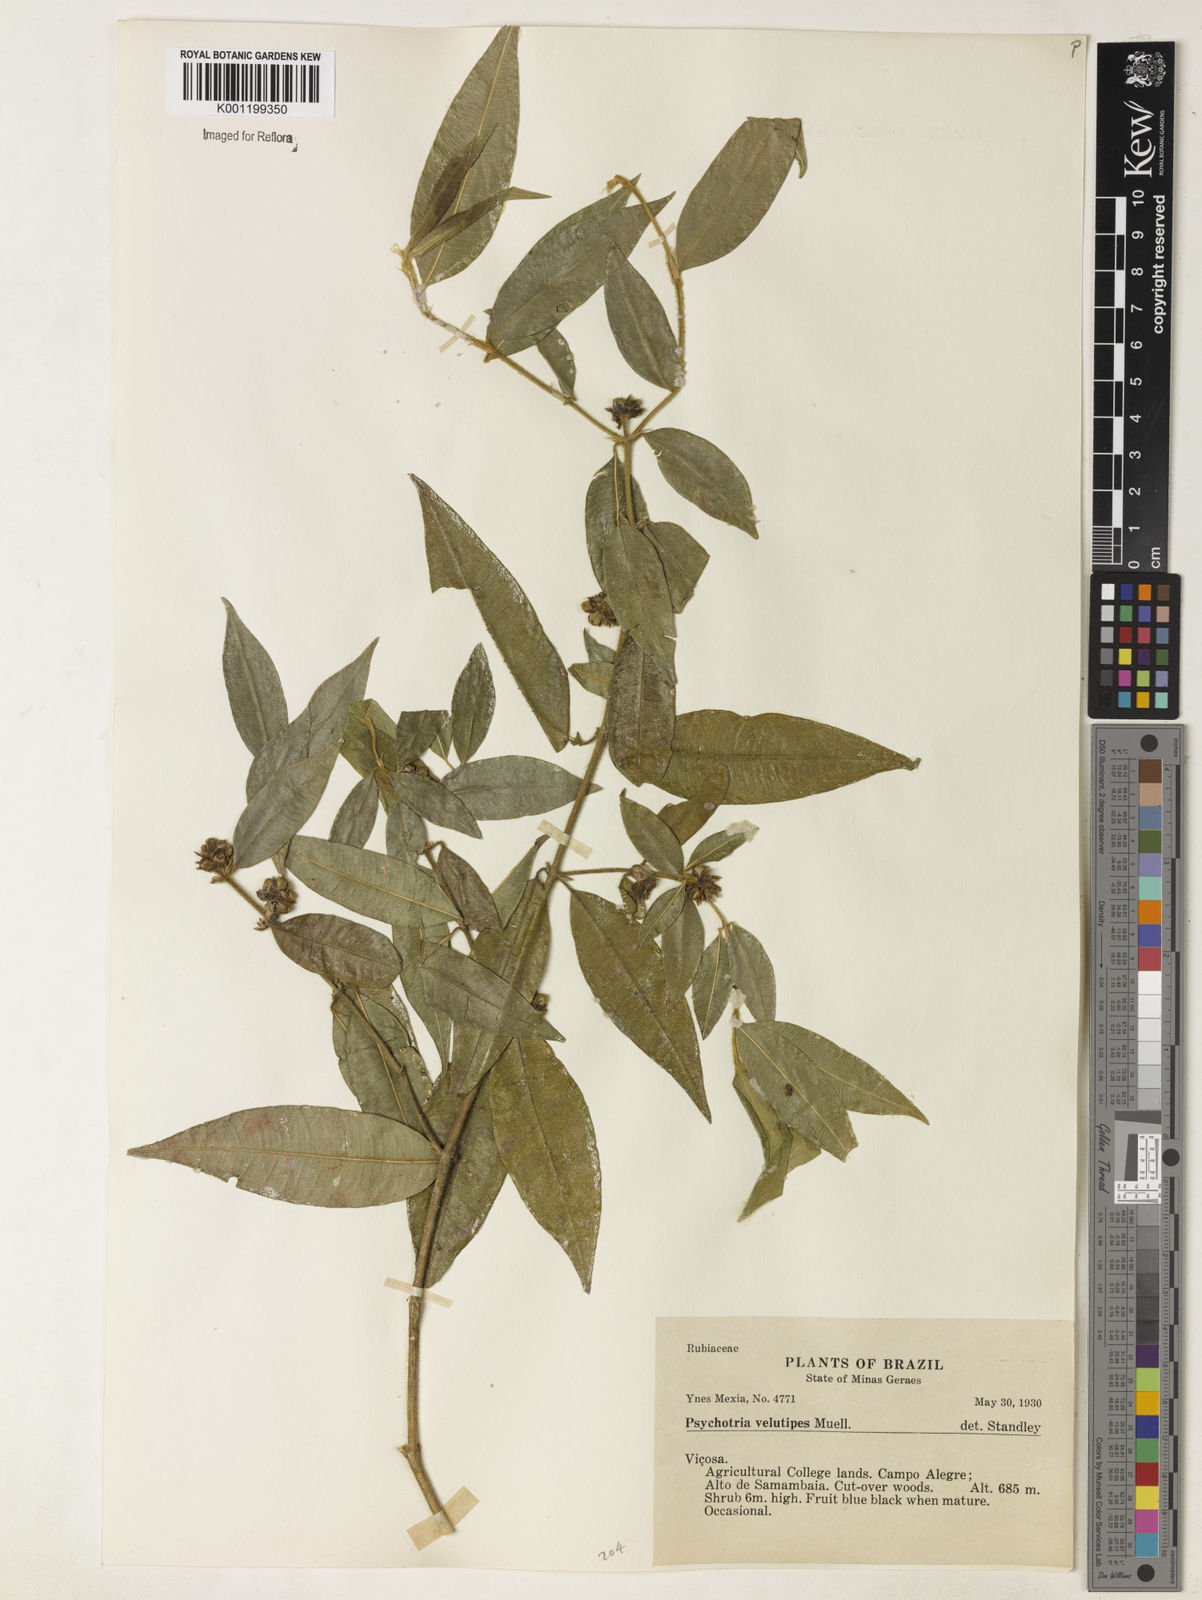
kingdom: Plantae
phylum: Tracheophyta
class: Magnoliopsida
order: Gentianales
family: Rubiaceae
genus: Rudgea
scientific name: Rudgea sessilis
